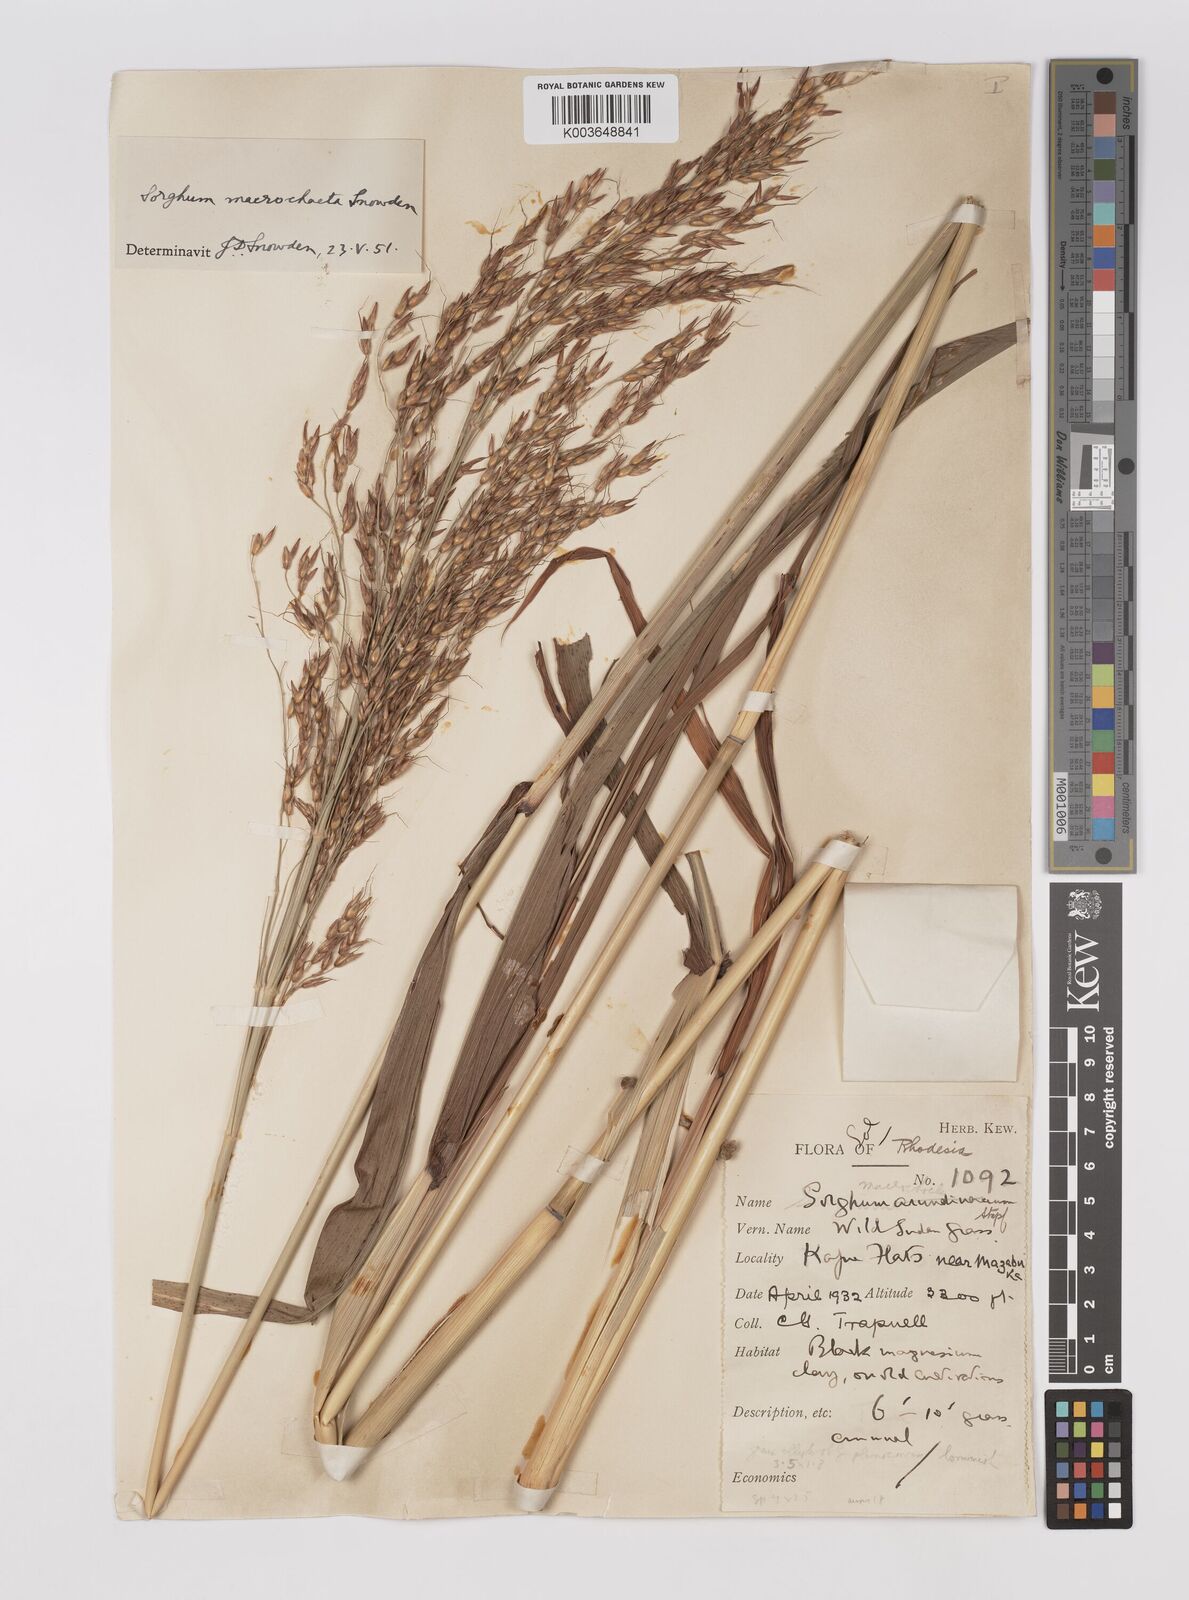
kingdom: Plantae
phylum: Tracheophyta
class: Liliopsida
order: Poales
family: Poaceae
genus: Sorghum
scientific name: Sorghum arundinaceum
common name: Sorghum
